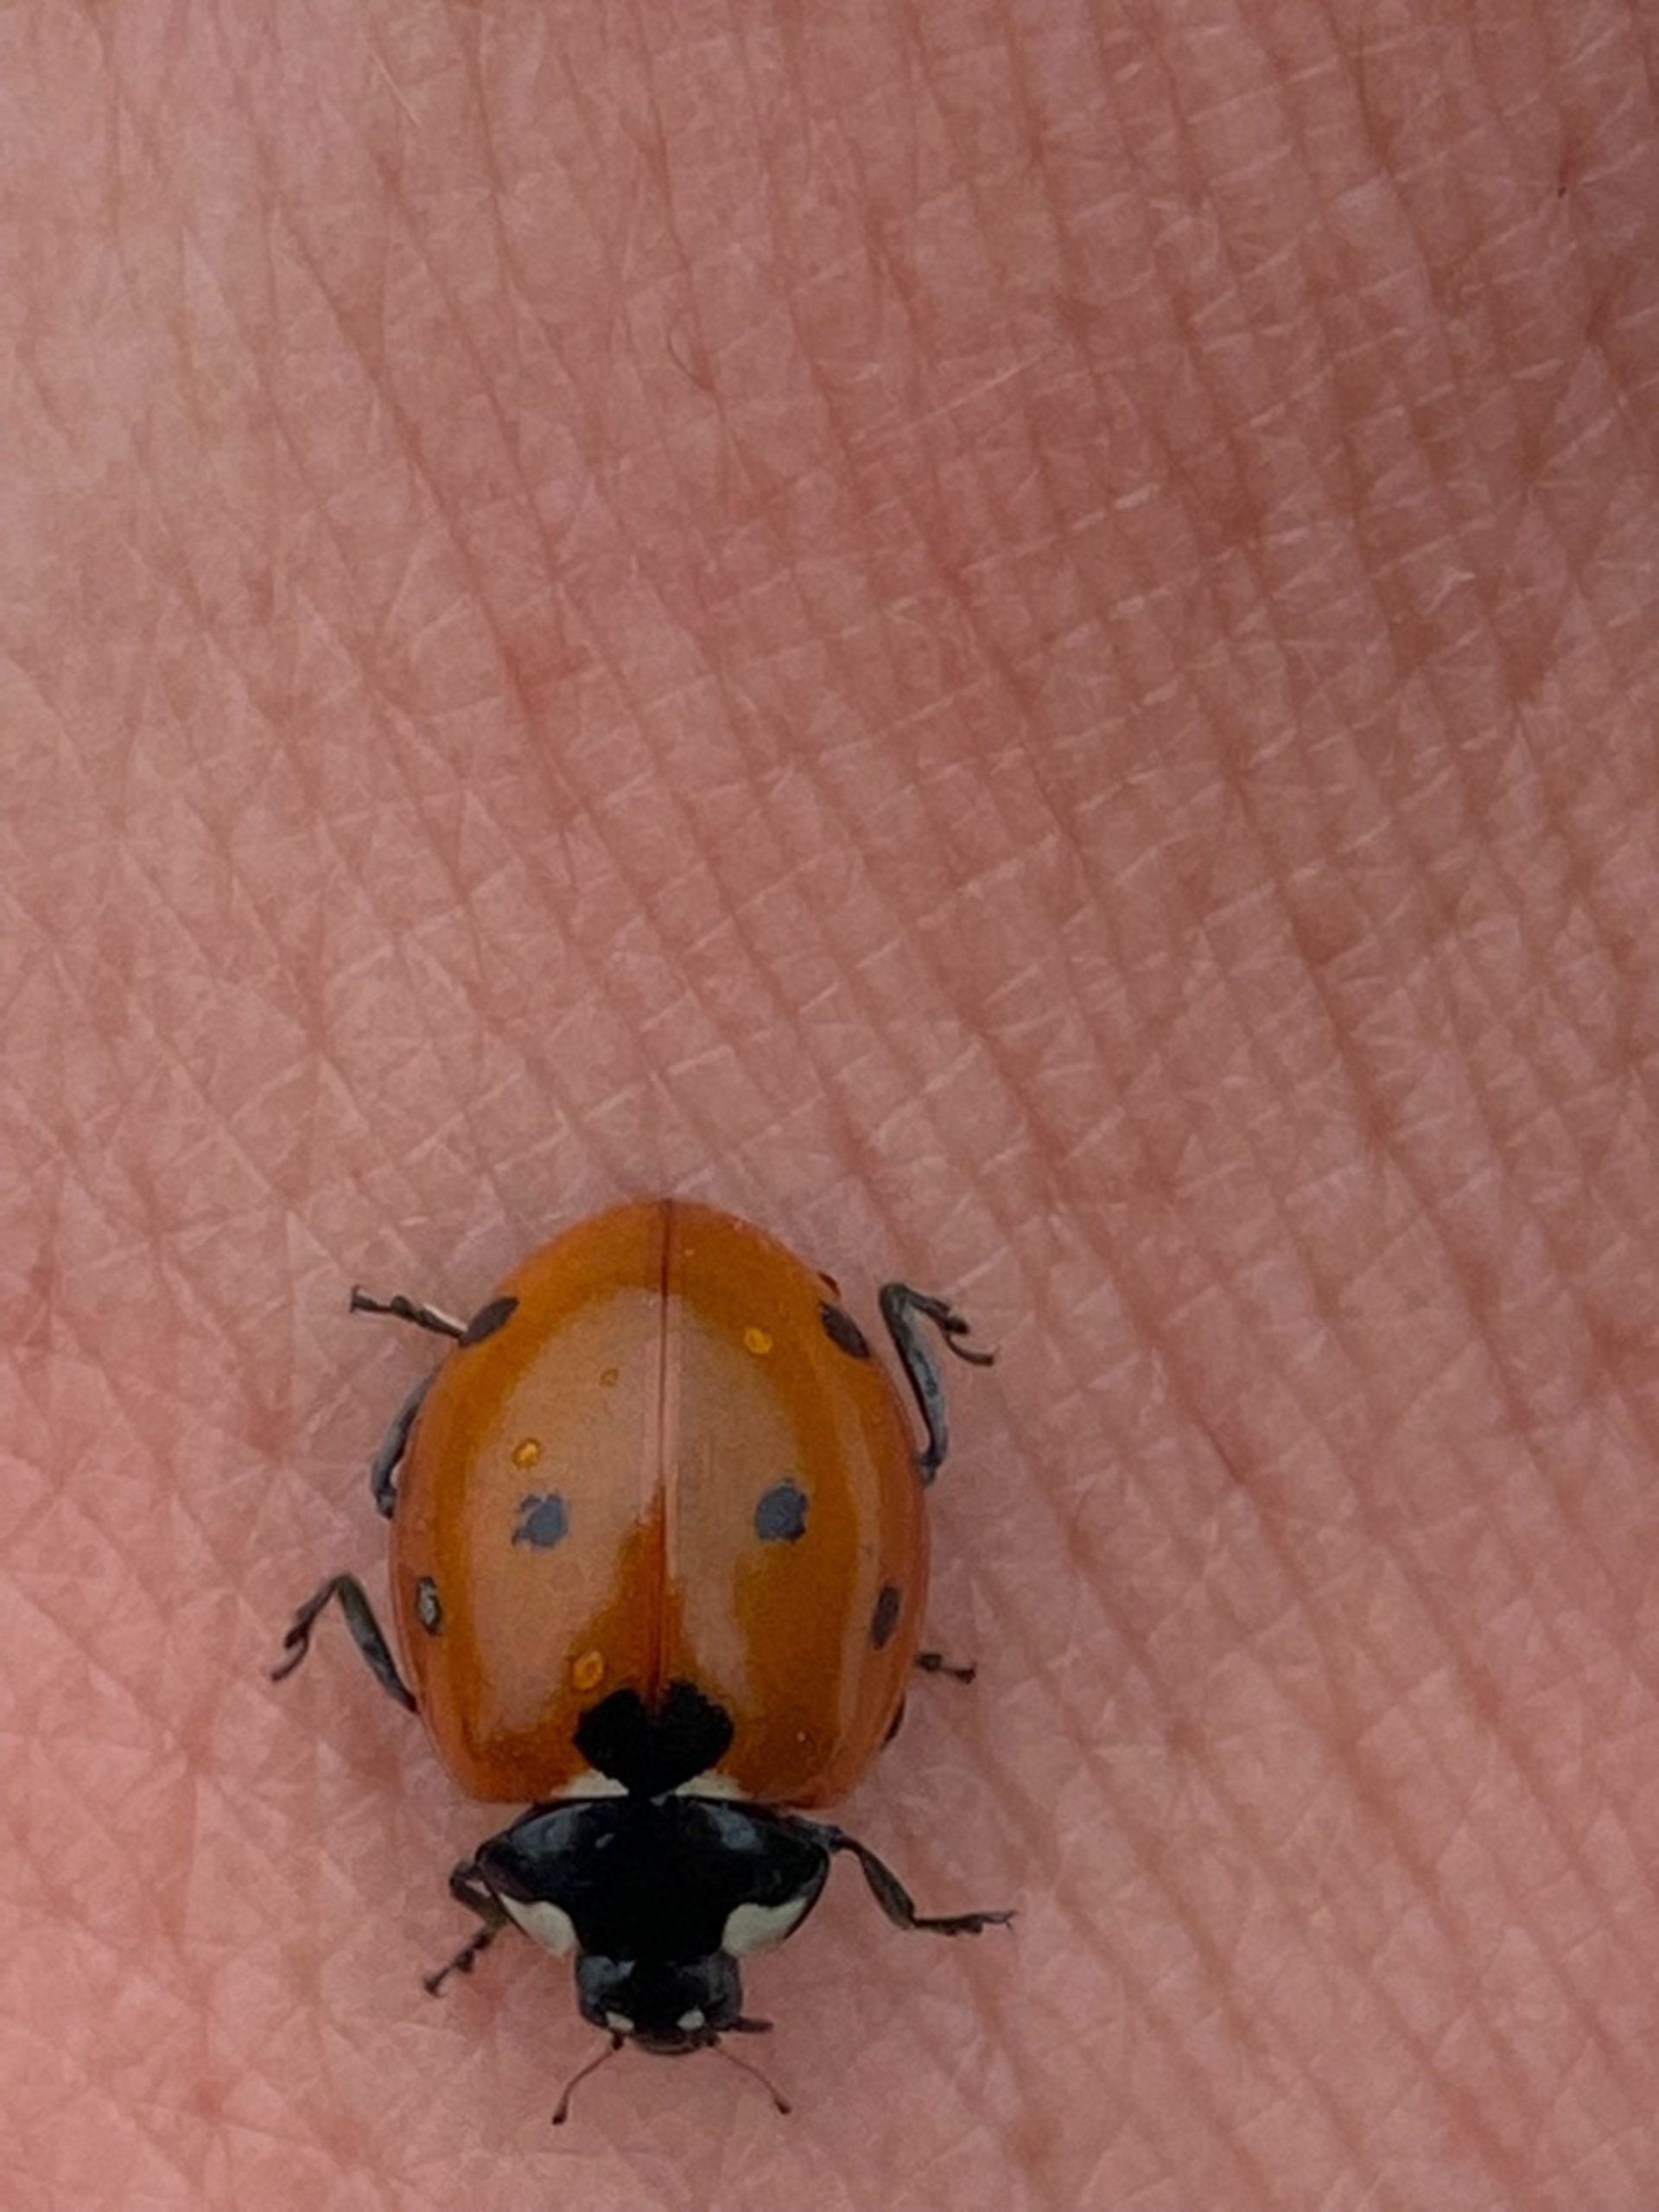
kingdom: Animalia
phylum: Arthropoda
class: Insecta
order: Coleoptera
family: Coccinellidae
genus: Coccinella
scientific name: Coccinella septempunctata
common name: Syvplettet mariehøne
